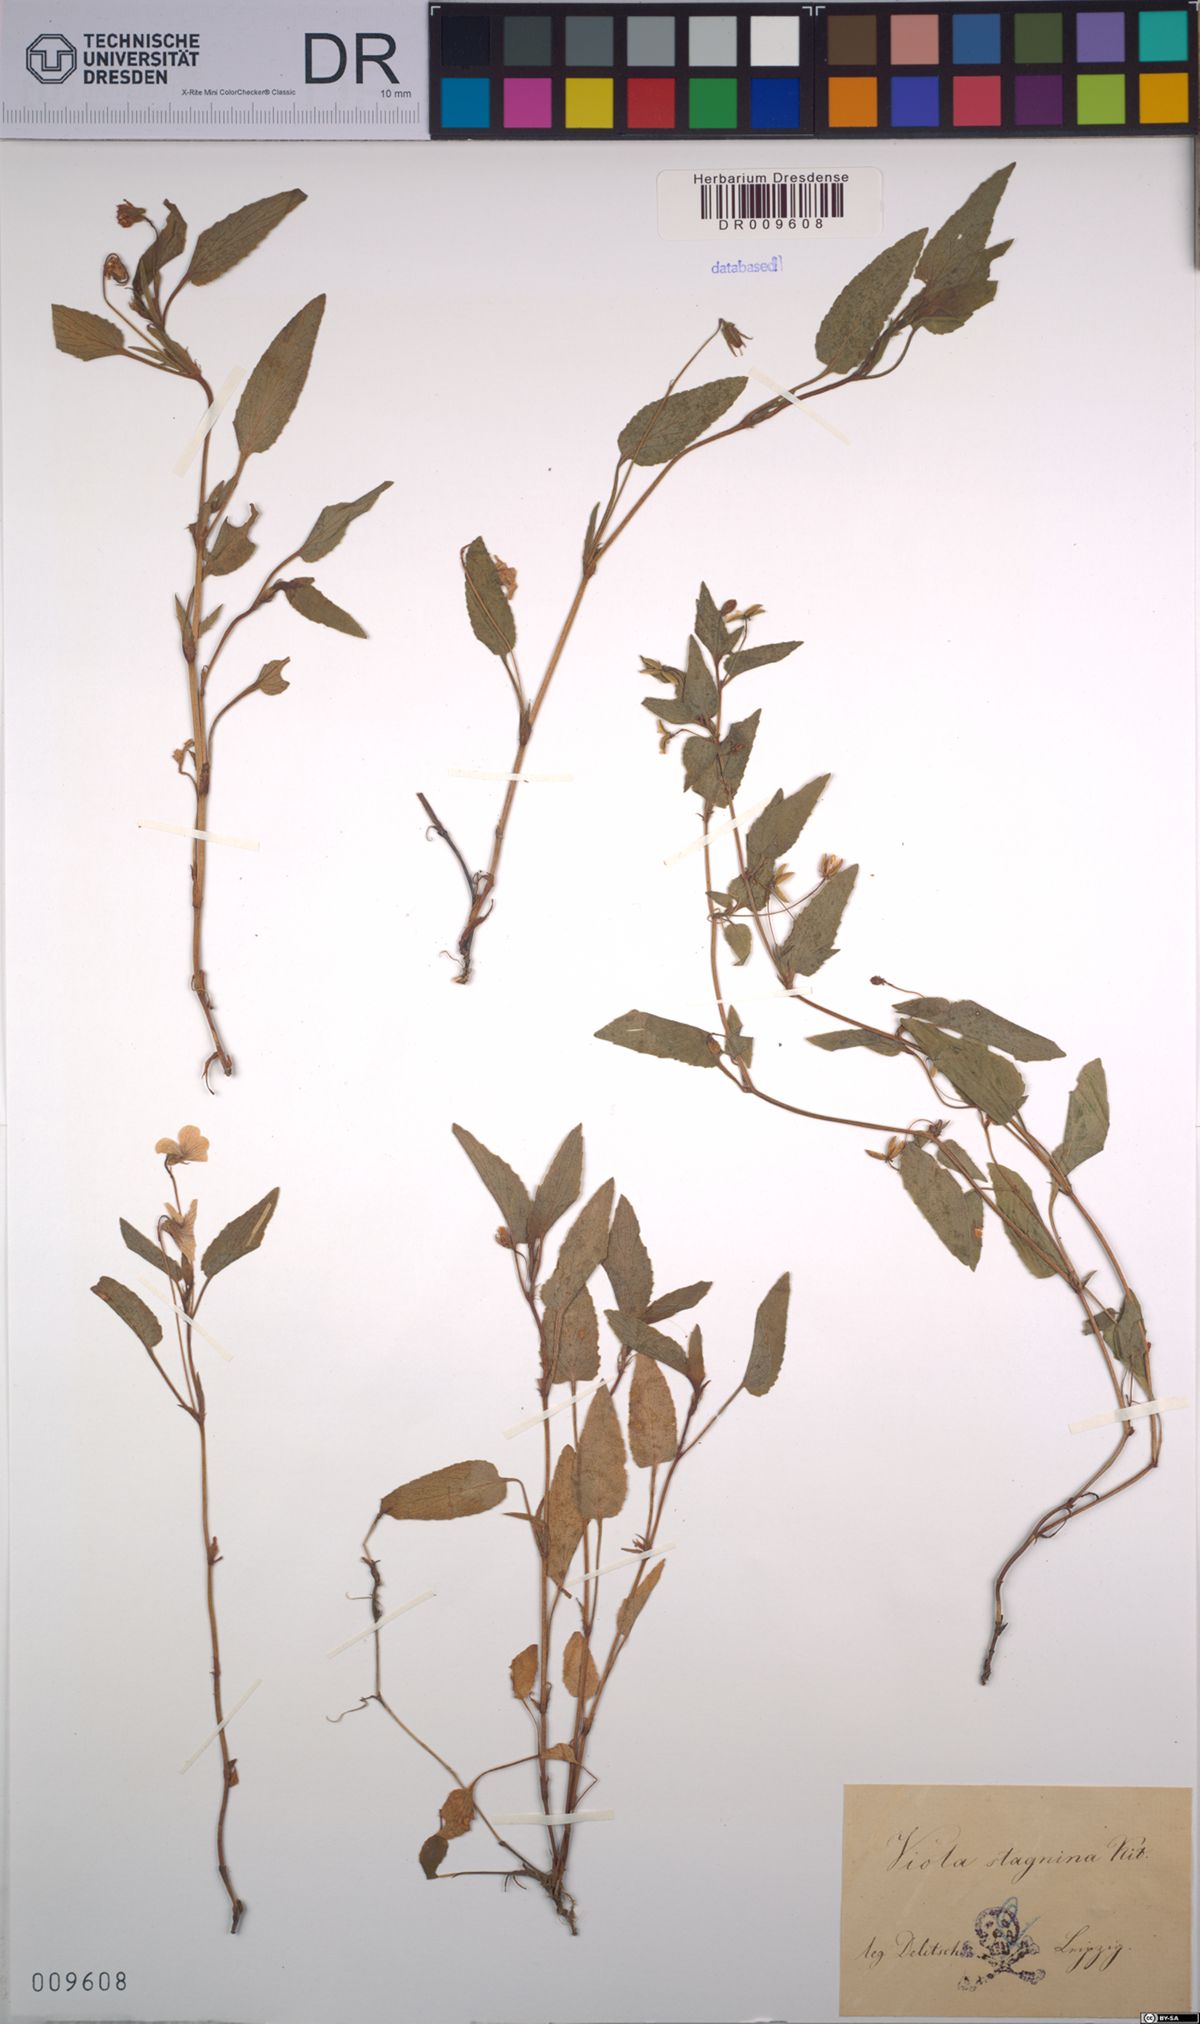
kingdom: Plantae
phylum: Tracheophyta
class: Magnoliopsida
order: Malpighiales
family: Violaceae
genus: Viola
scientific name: Viola stagnina
